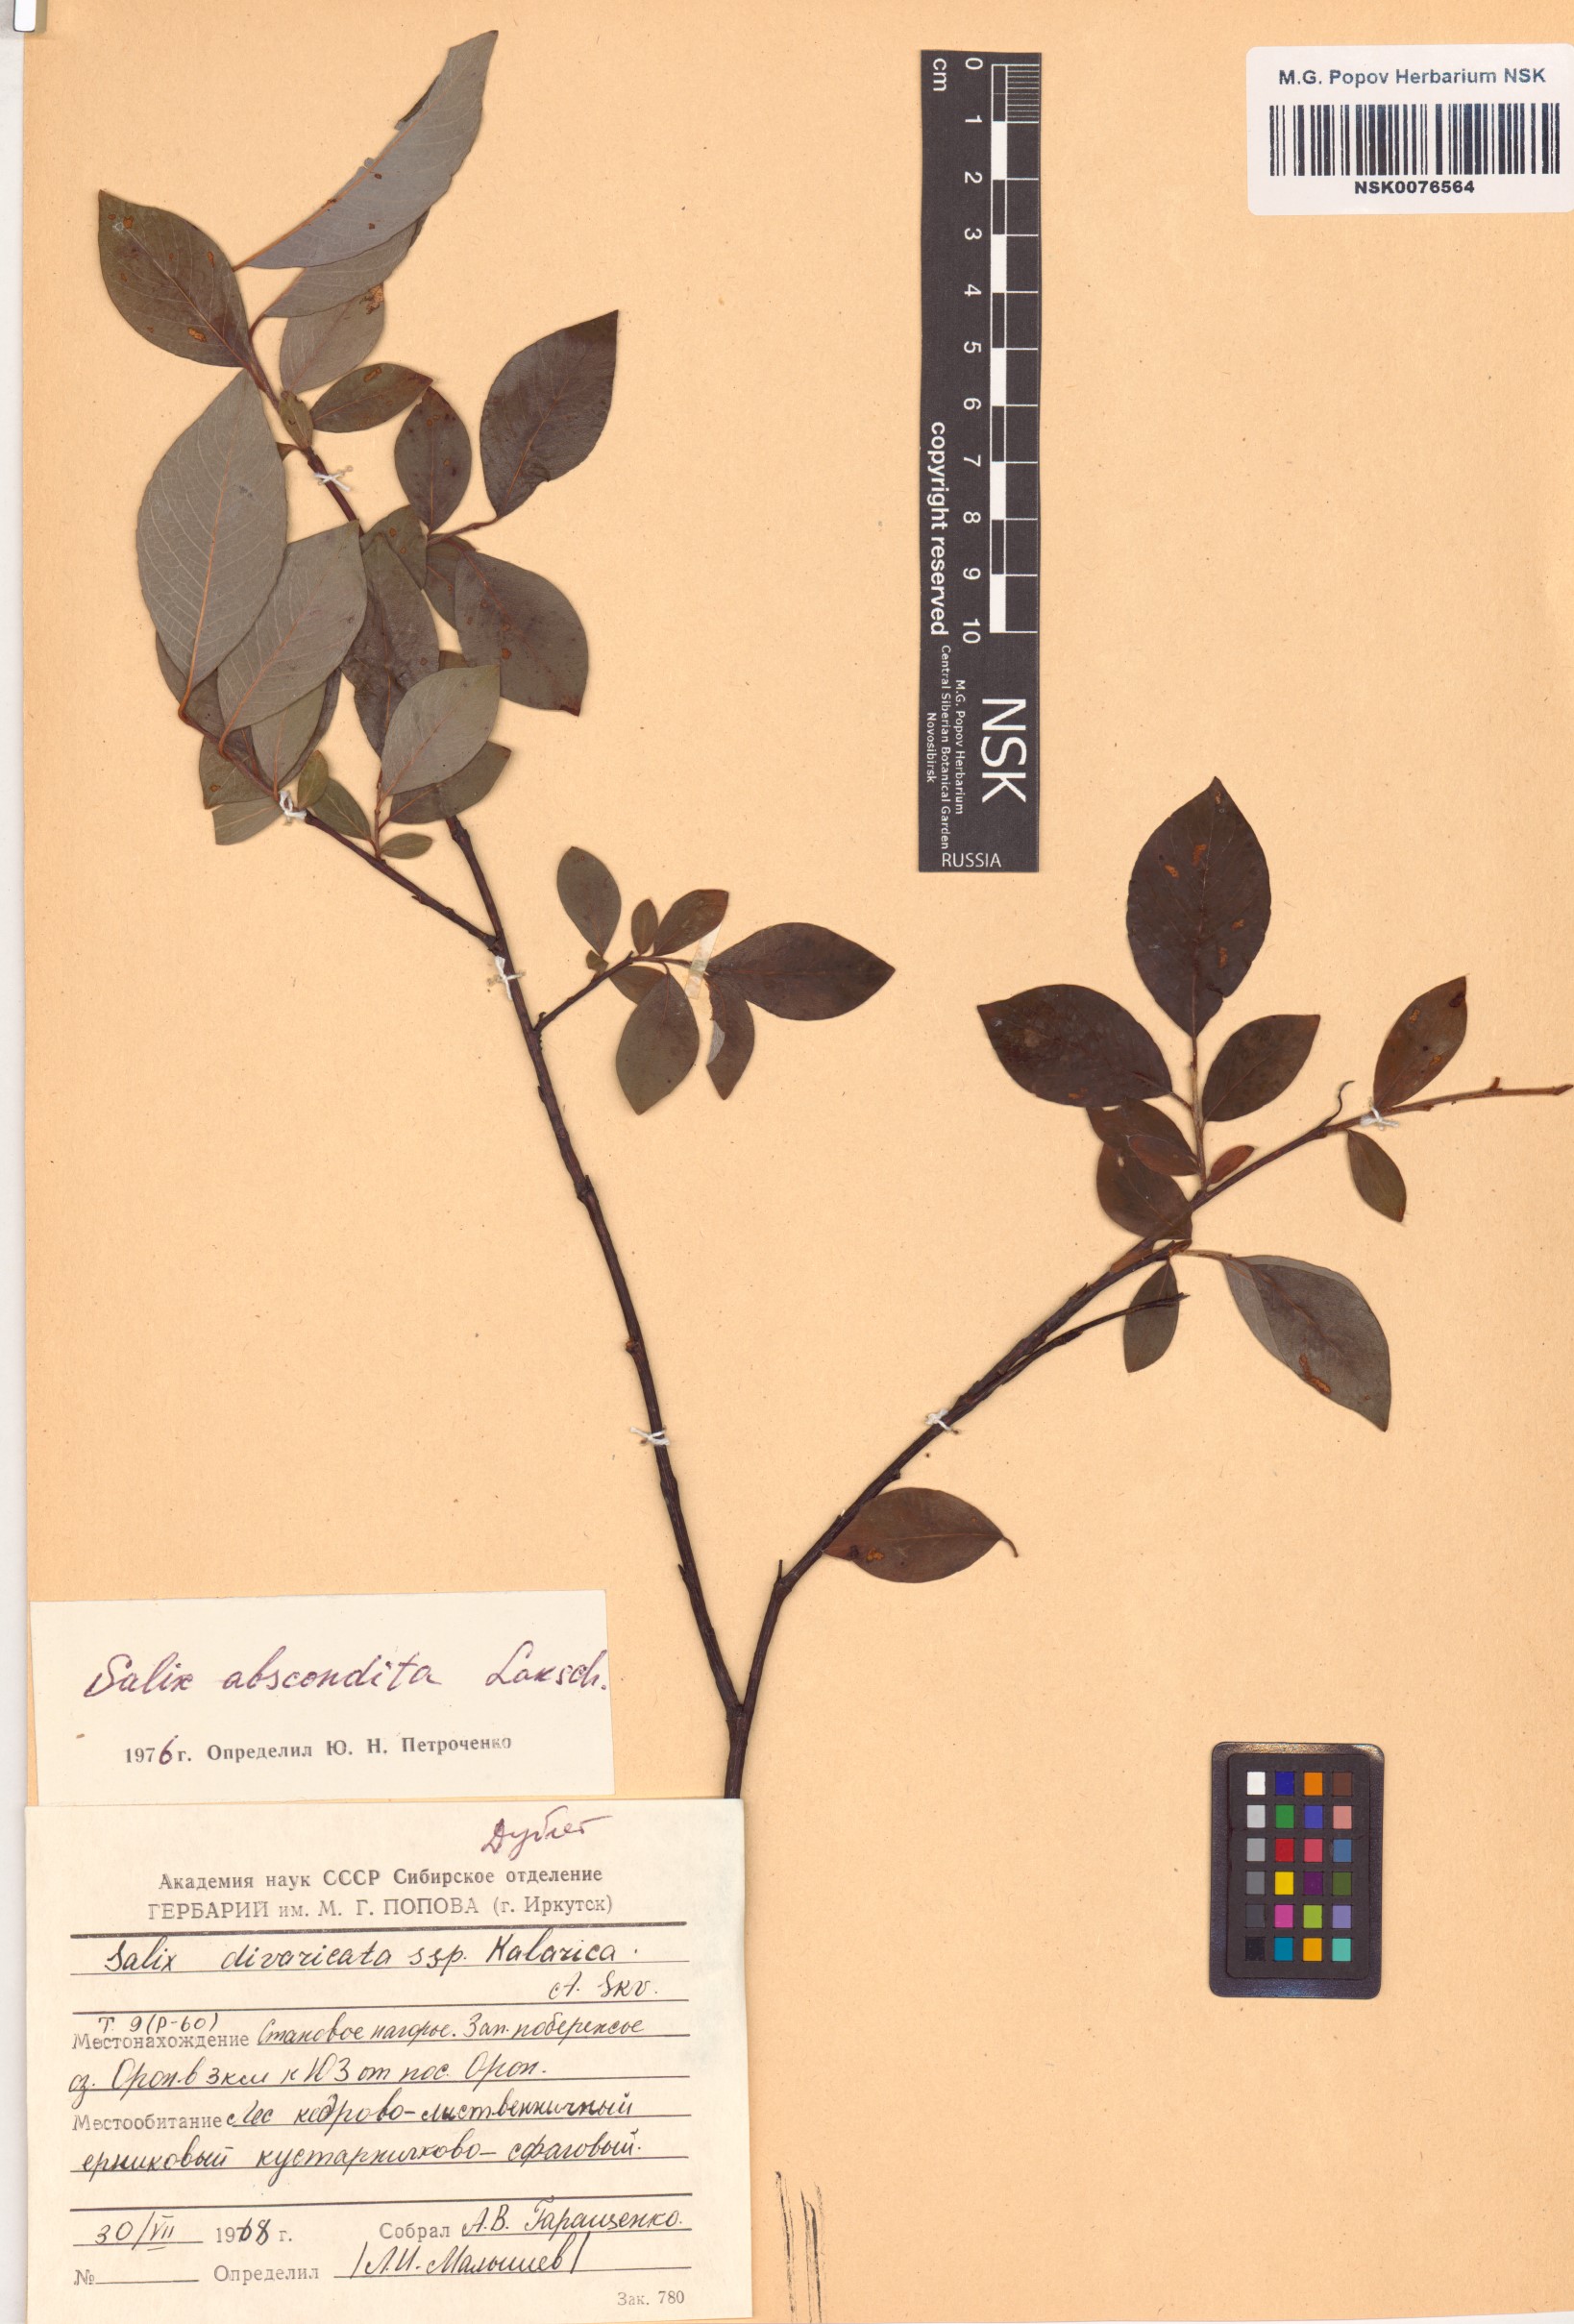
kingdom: Plantae
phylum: Tracheophyta
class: Magnoliopsida
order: Malpighiales
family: Salicaceae
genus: Salix
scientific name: Salix abscondita
